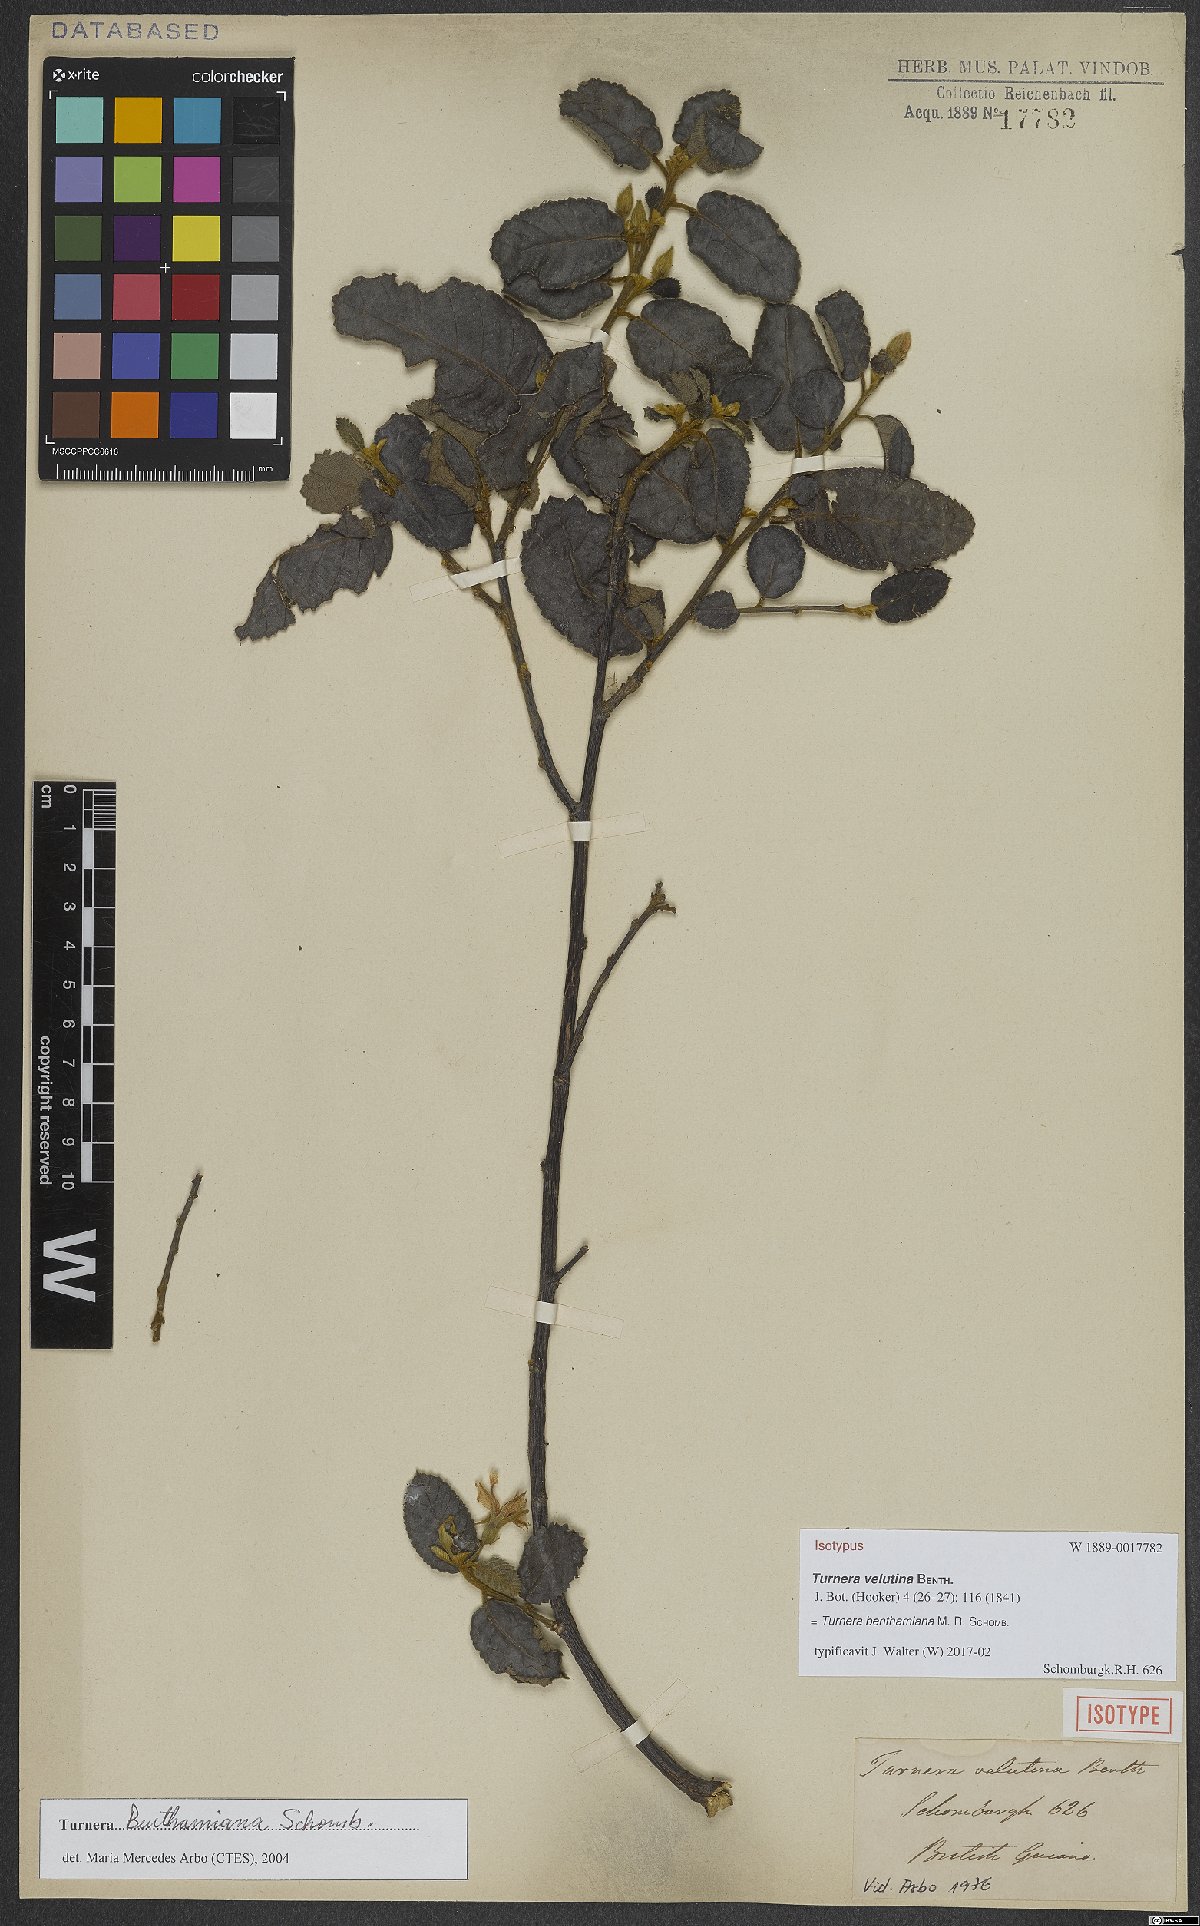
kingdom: Plantae
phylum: Tracheophyta
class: Magnoliopsida
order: Malpighiales
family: Turneraceae
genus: Turnera
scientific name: Turnera benthamiana
